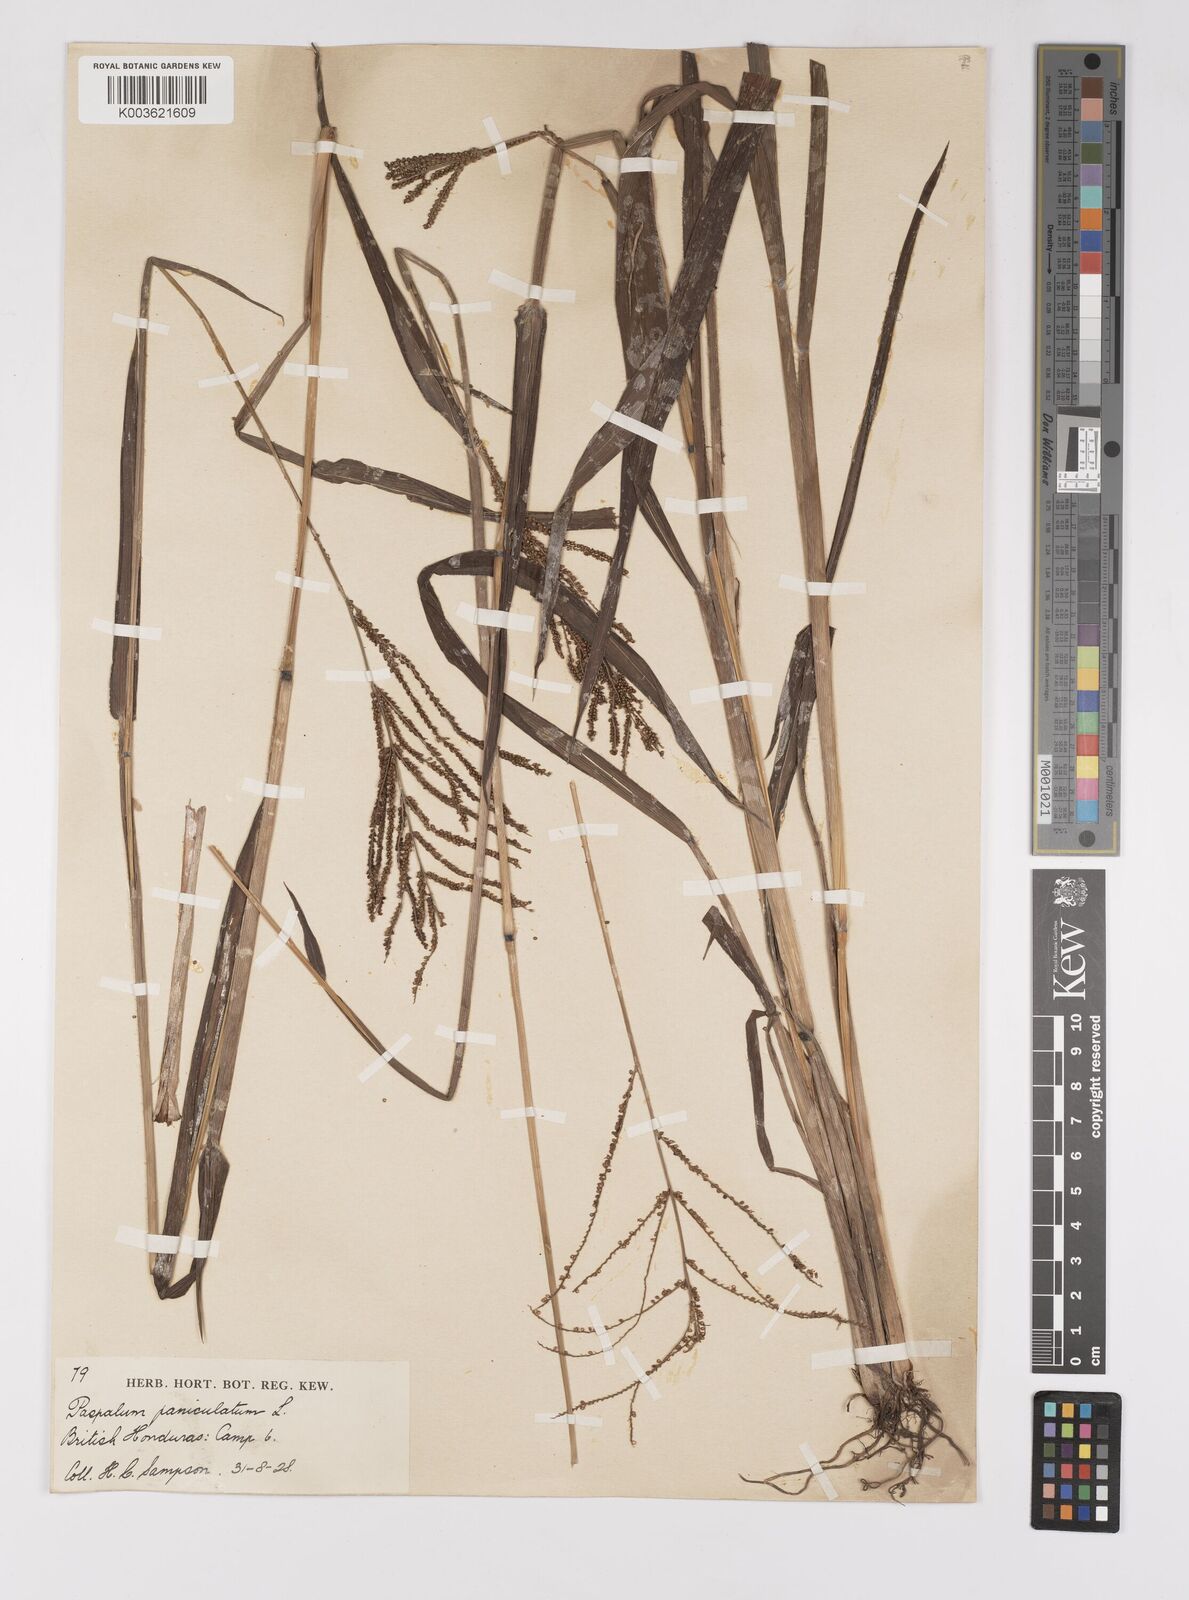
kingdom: Plantae
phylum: Tracheophyta
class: Liliopsida
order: Poales
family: Poaceae
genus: Paspalum
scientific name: Paspalum paniculatum
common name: Arrocillo
